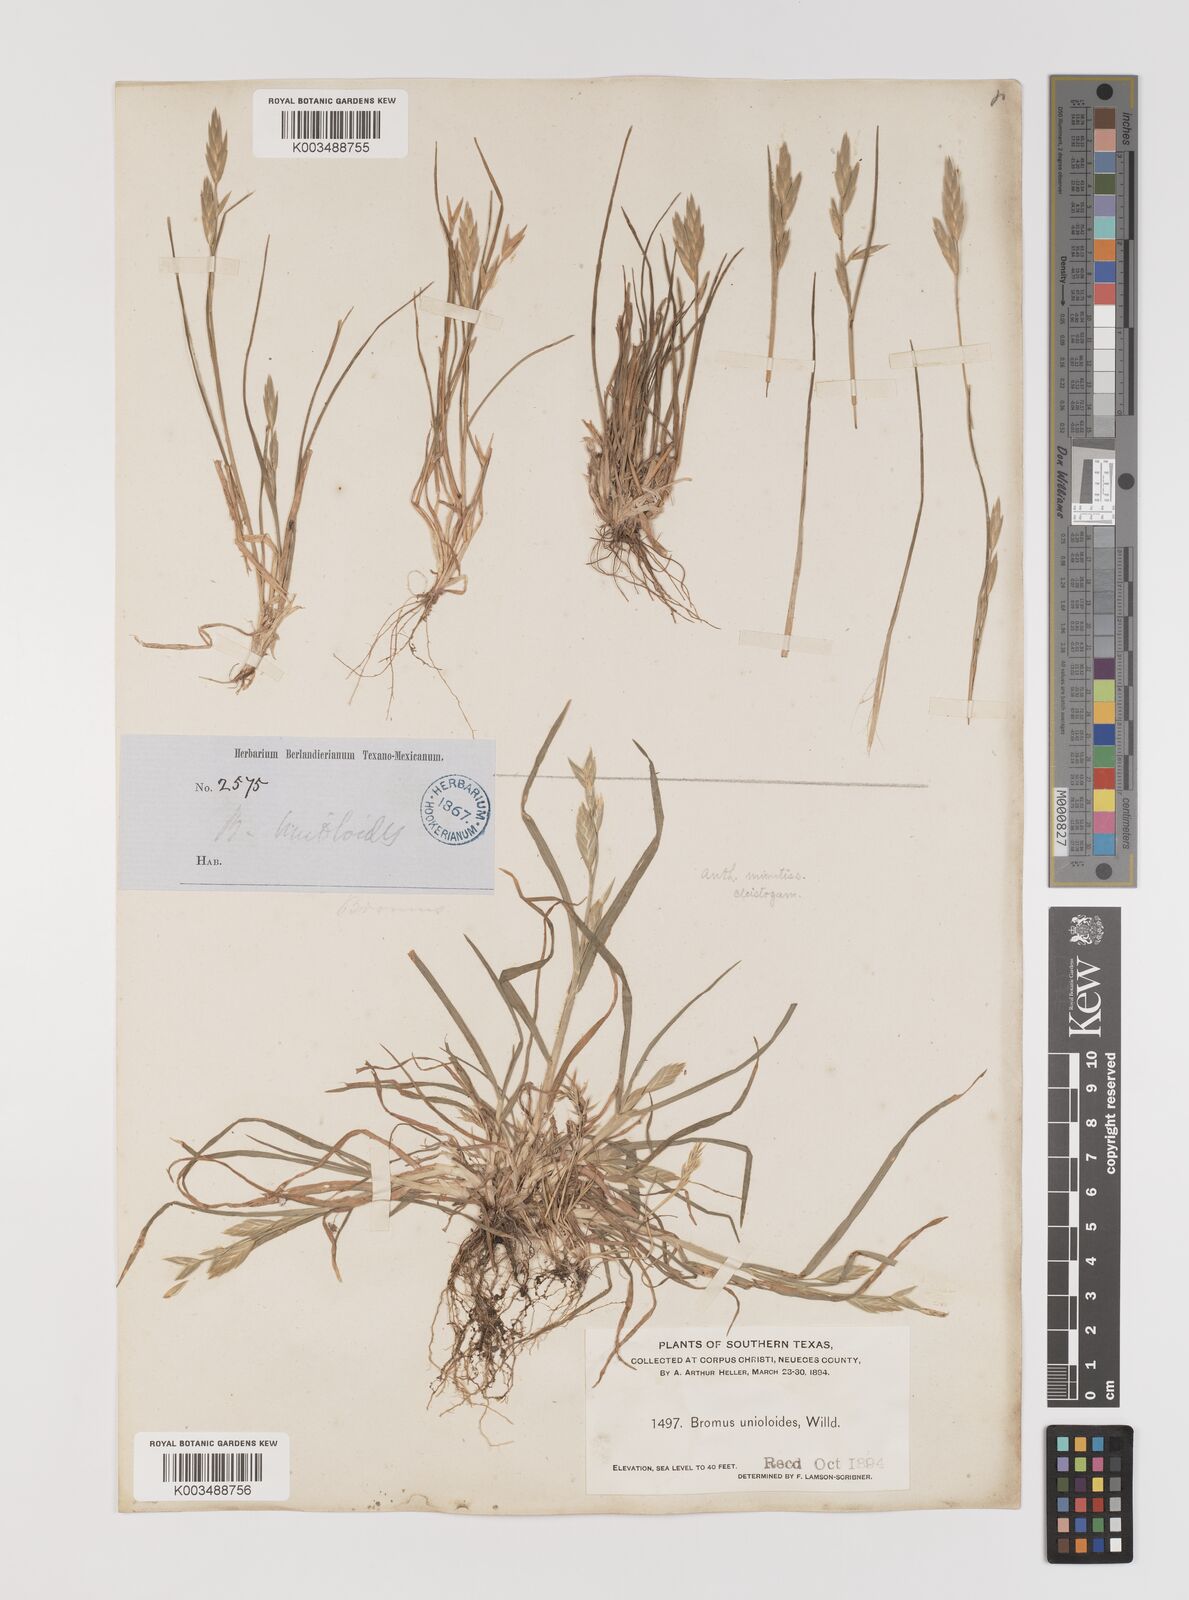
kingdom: Plantae
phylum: Tracheophyta
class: Liliopsida
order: Poales
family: Poaceae
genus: Bromus
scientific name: Bromus
